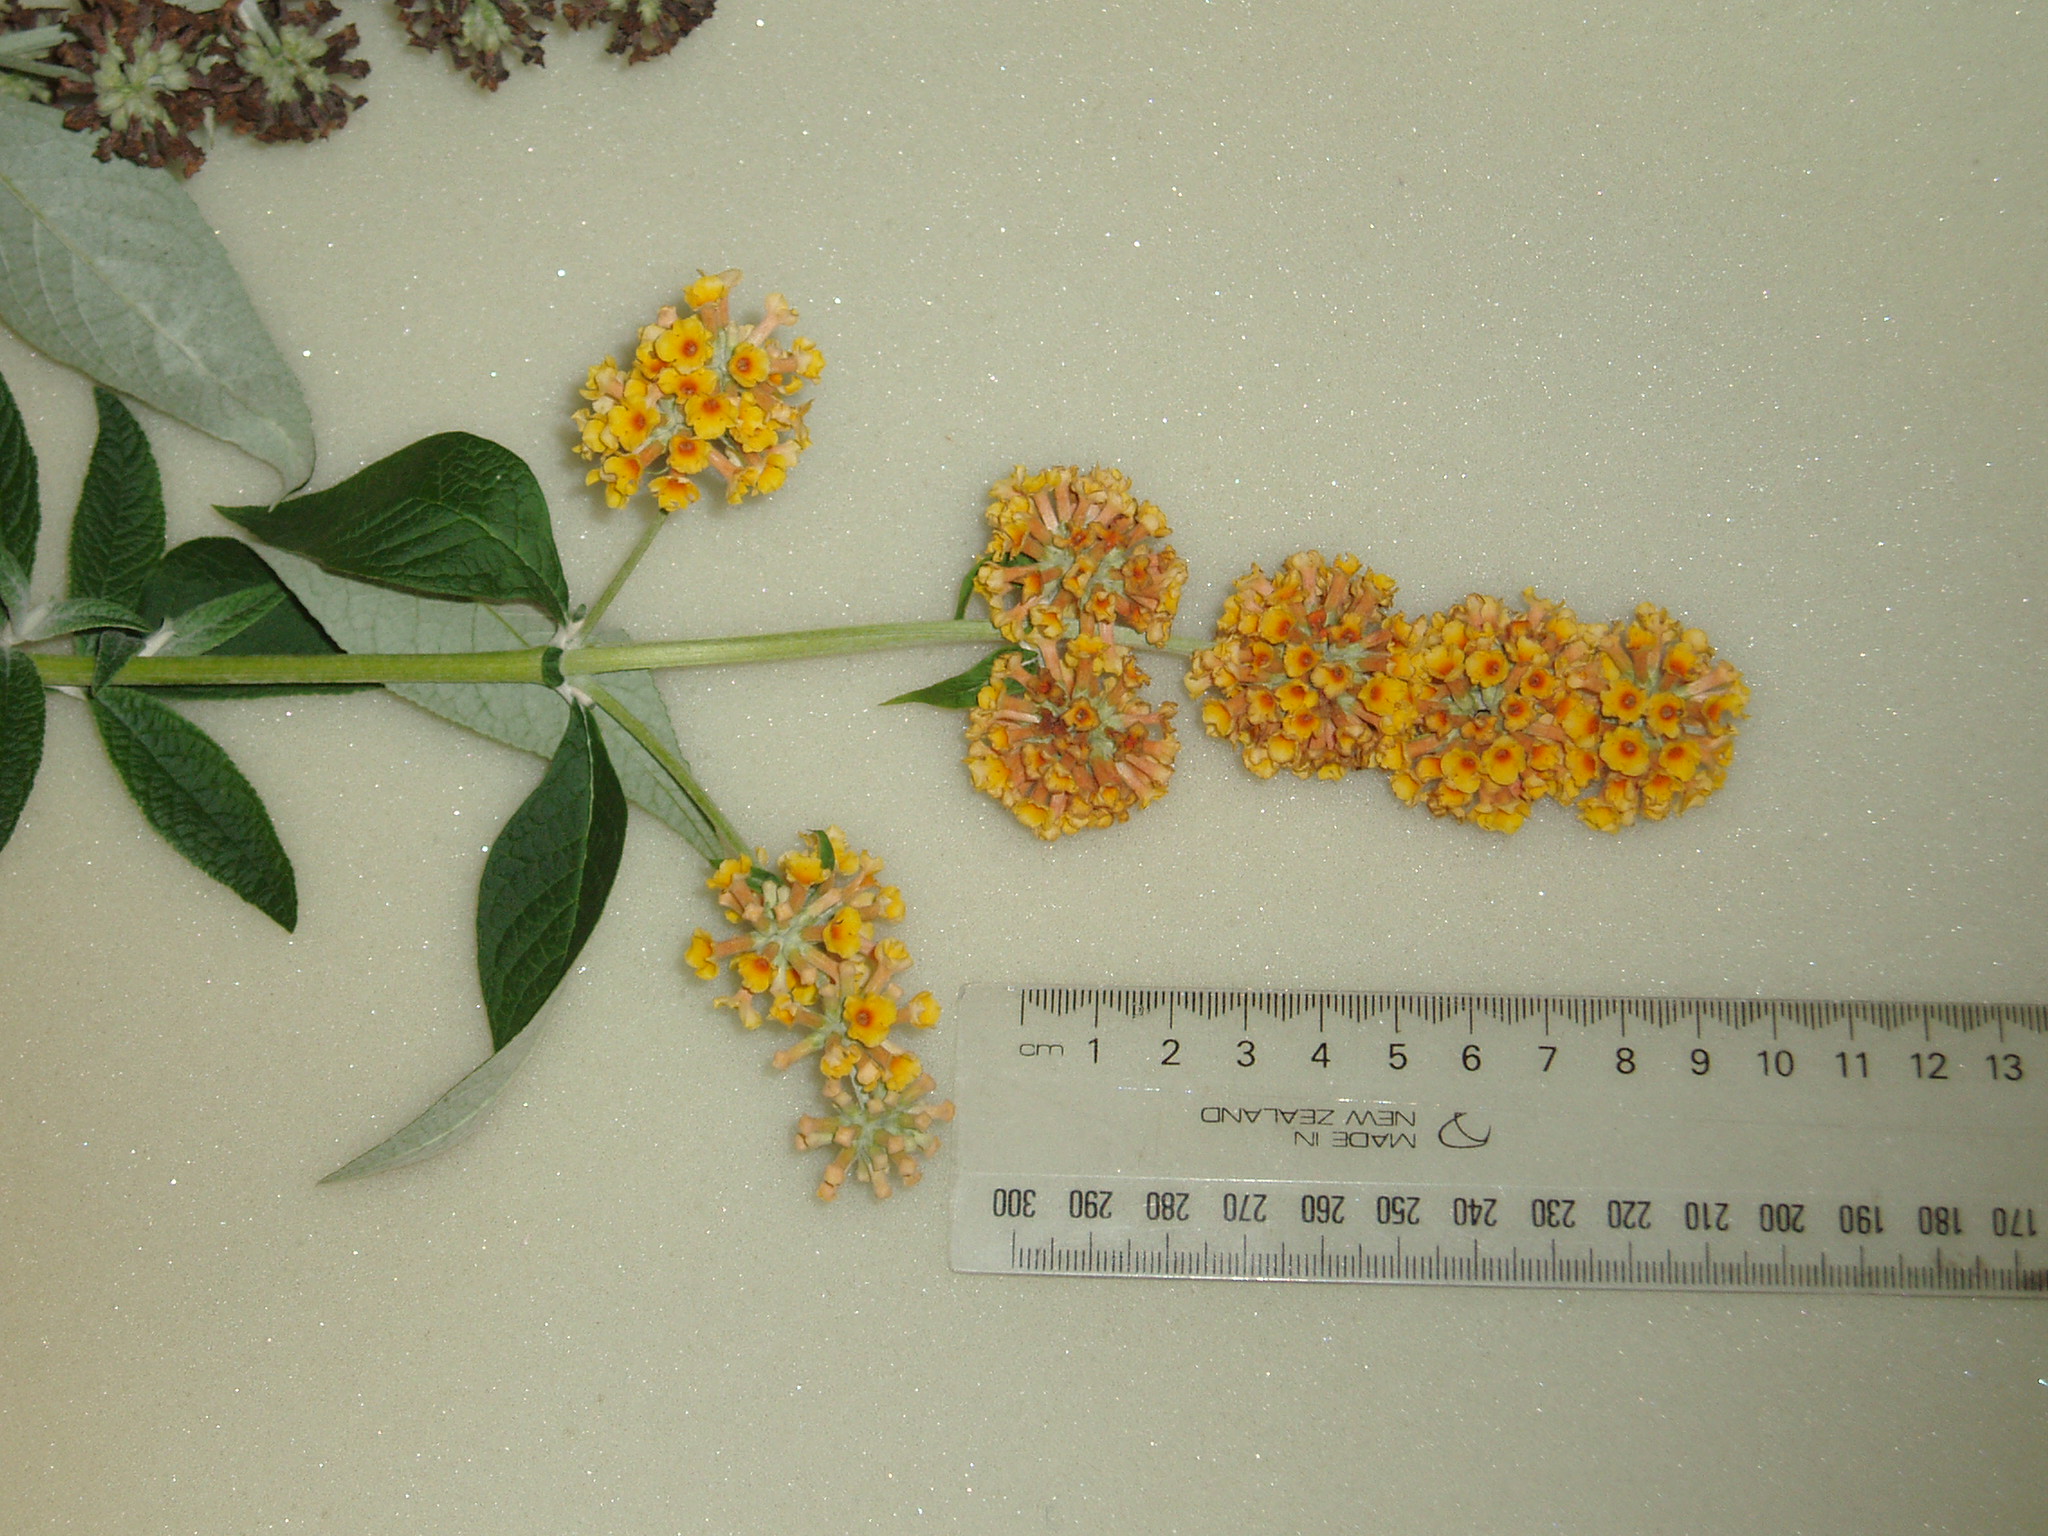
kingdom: Plantae
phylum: Tracheophyta
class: Magnoliopsida
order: Lamiales
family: Scrophulariaceae
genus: Buddleja
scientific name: Buddleja weyeriana
